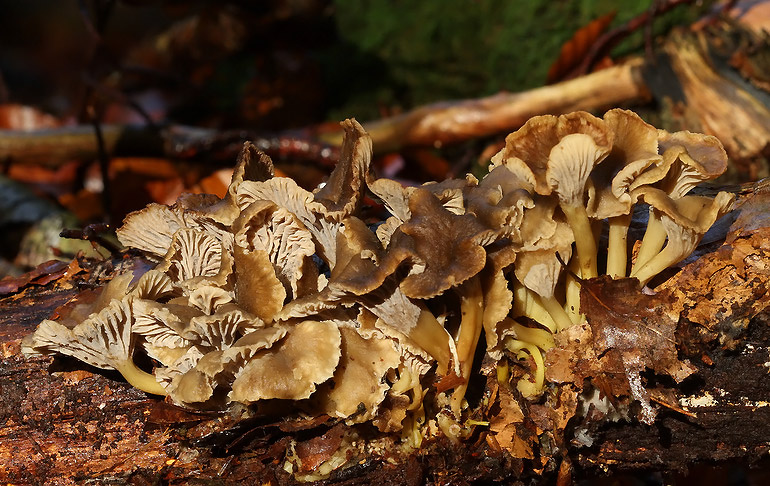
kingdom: Fungi
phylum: Basidiomycota
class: Agaricomycetes
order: Cantharellales
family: Hydnaceae
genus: Craterellus
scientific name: Craterellus tubaeformis
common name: tragt-kantarel
